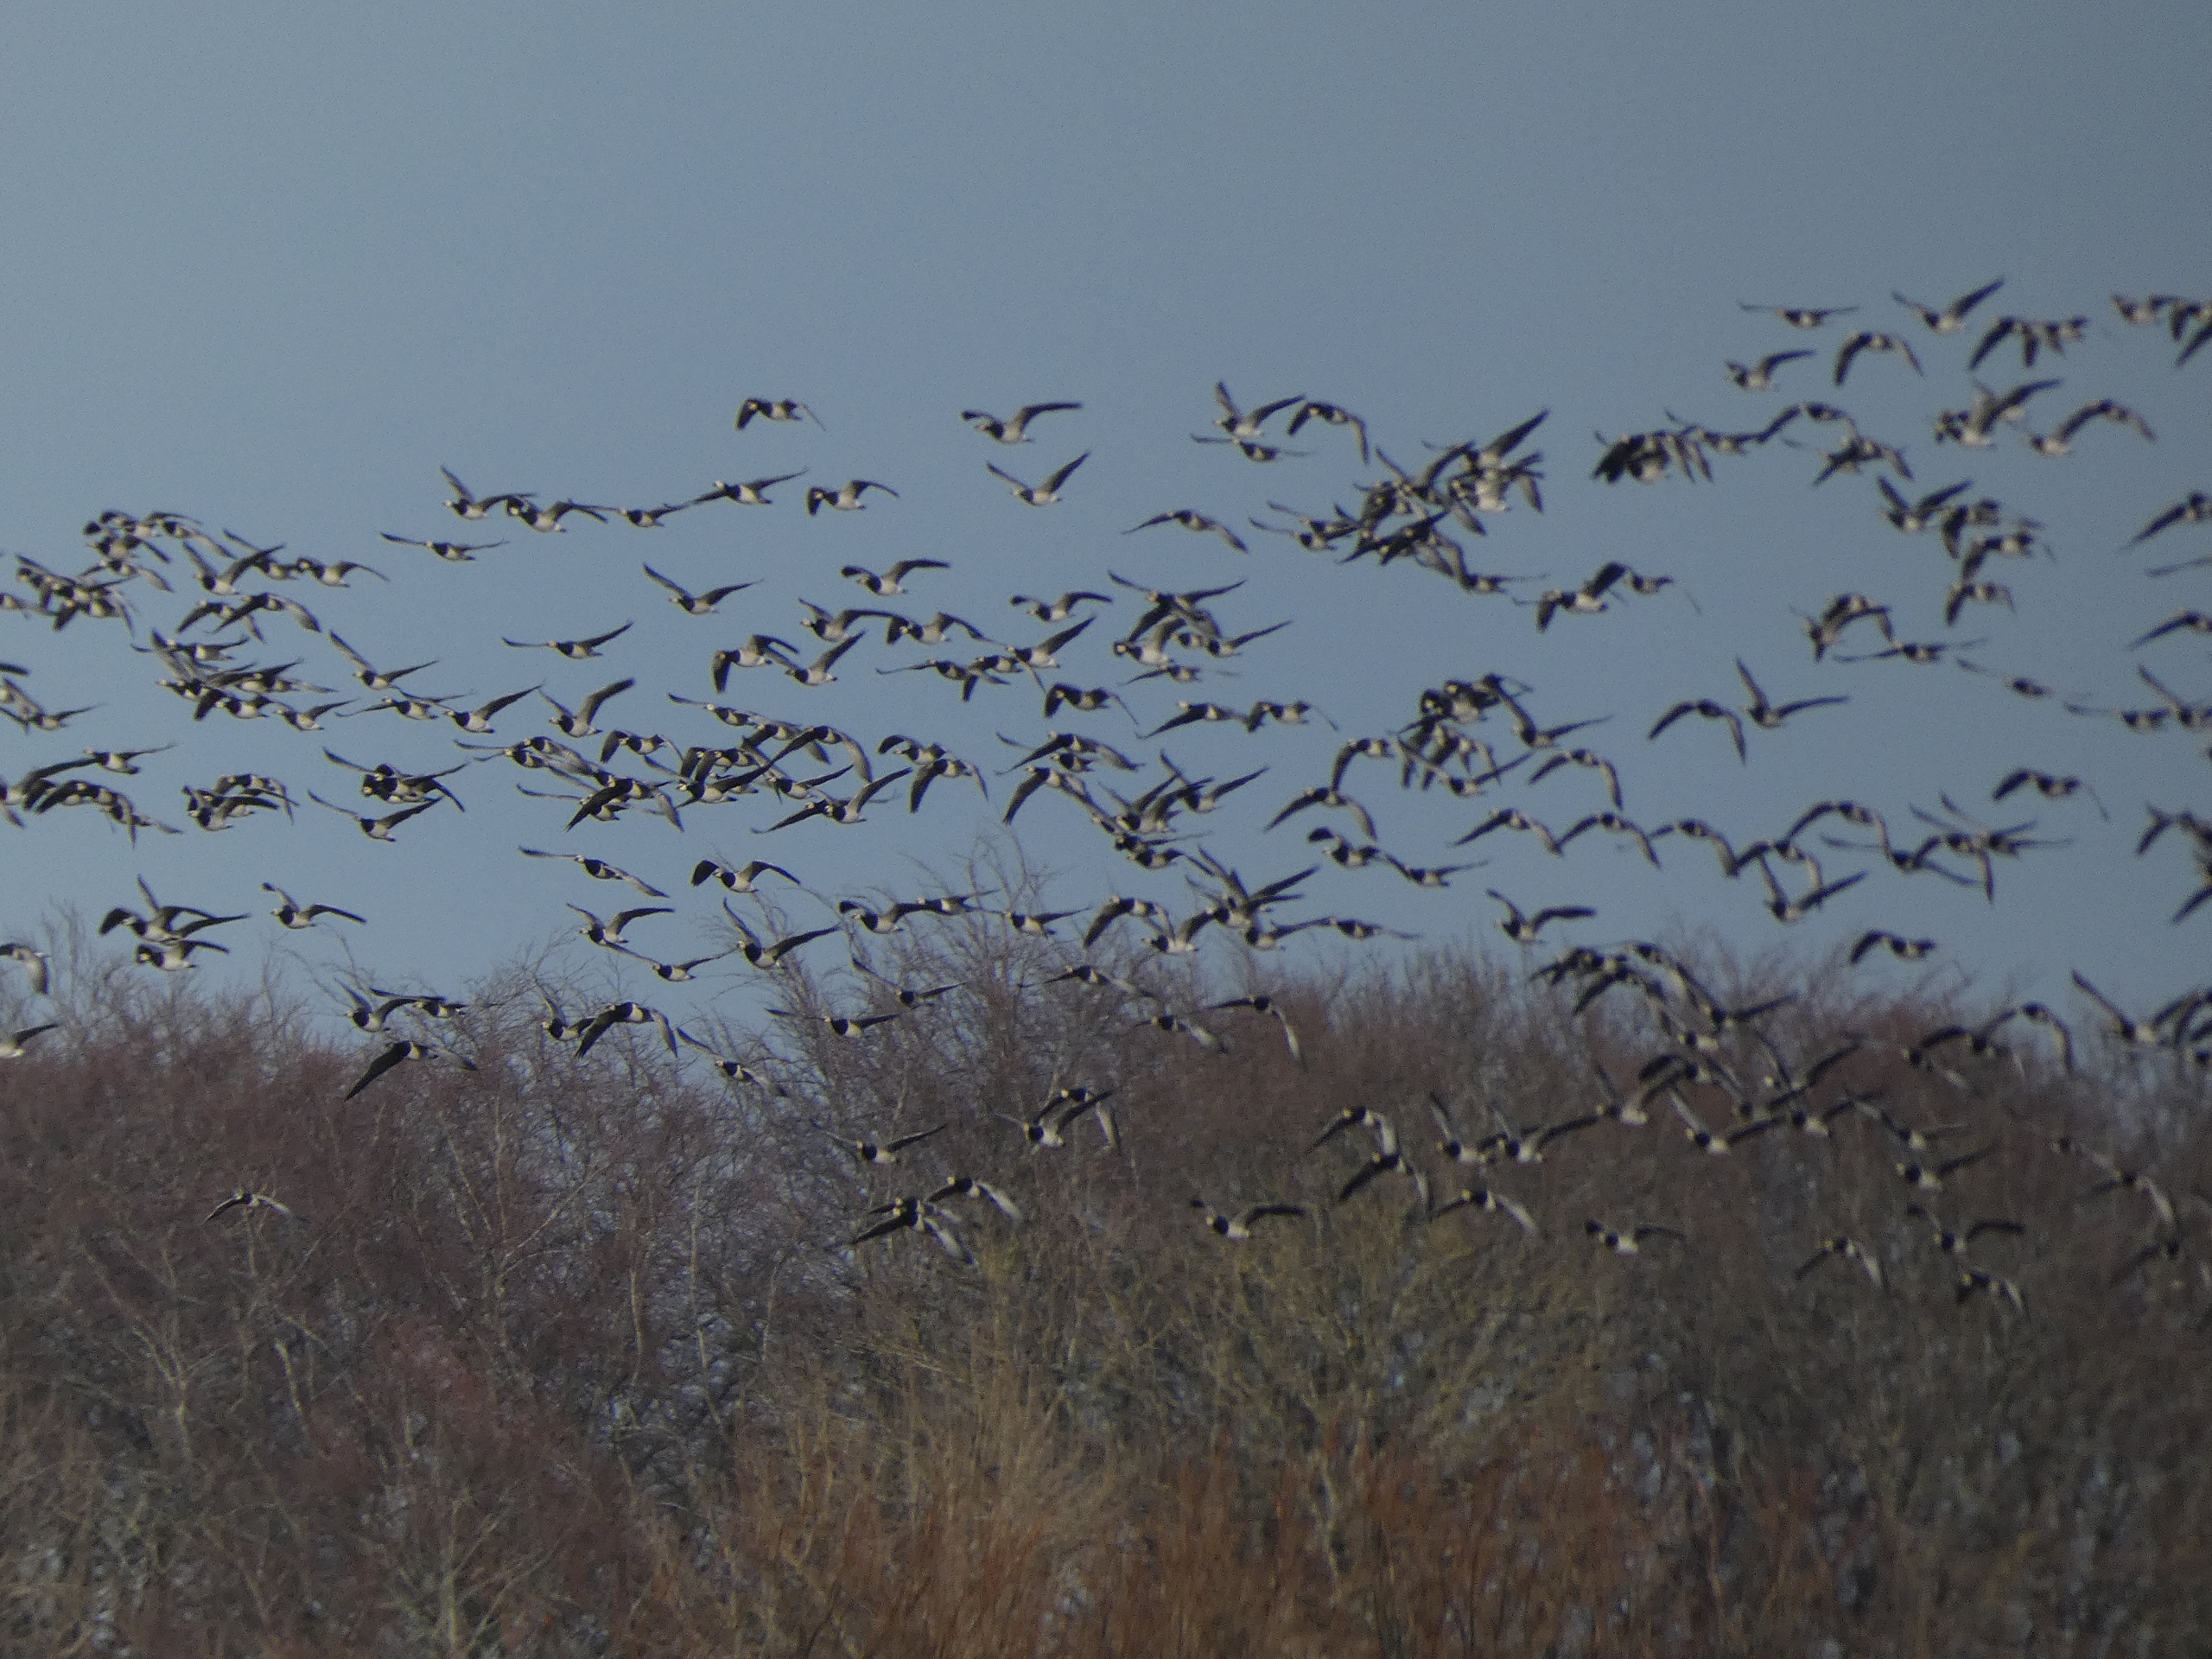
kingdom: Animalia
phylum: Chordata
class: Aves
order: Anseriformes
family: Anatidae
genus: Branta
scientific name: Branta leucopsis
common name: Bramgås
